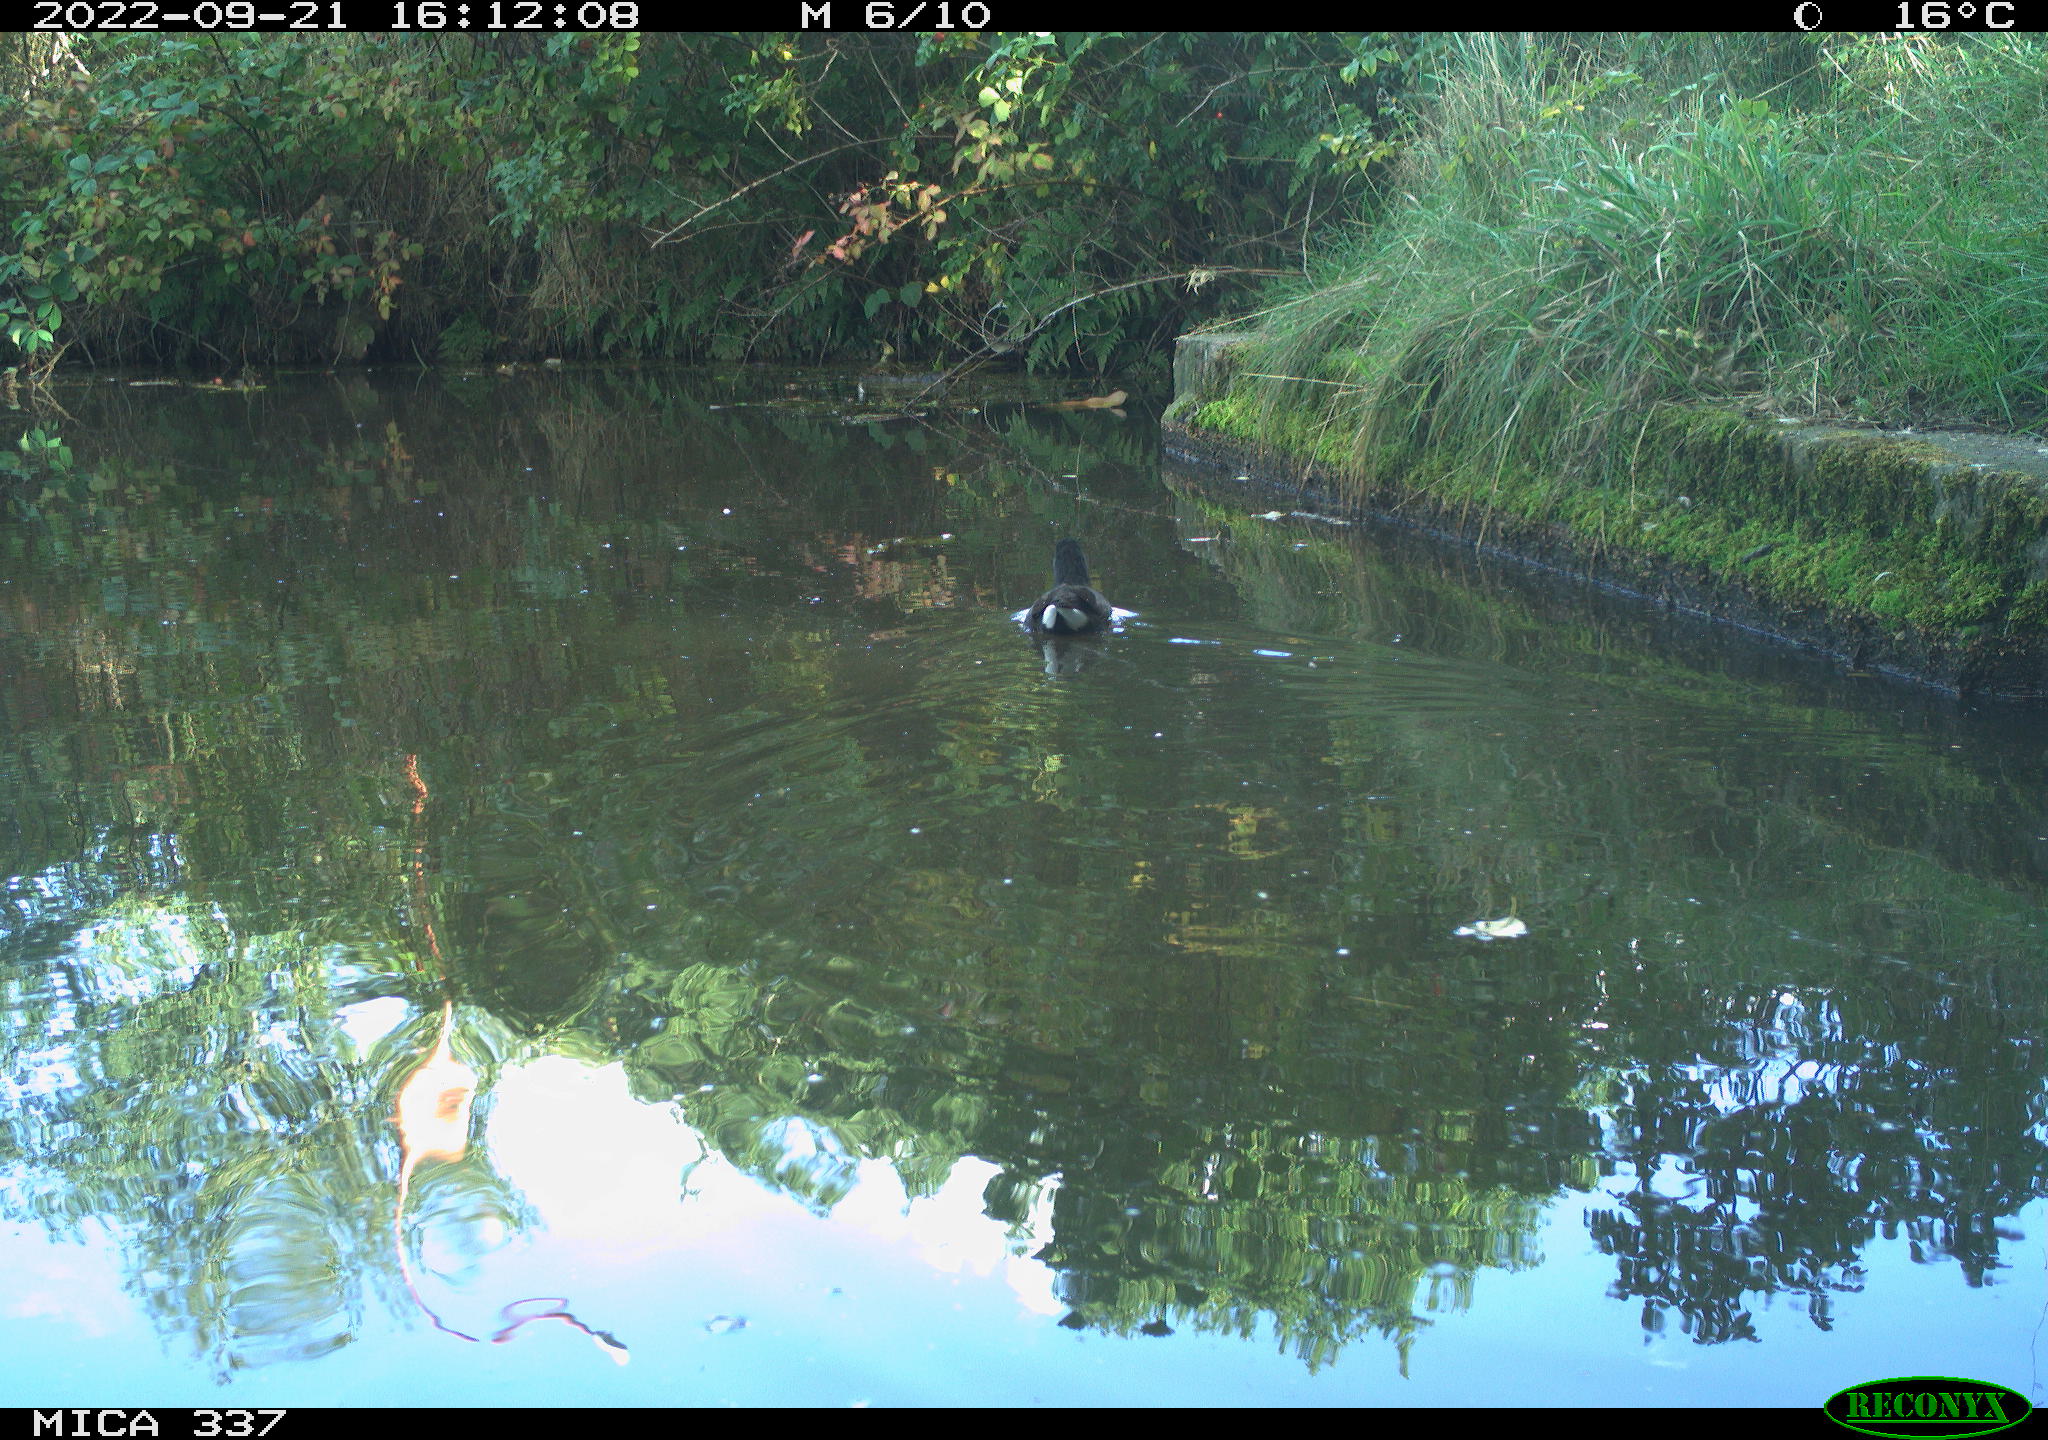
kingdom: Animalia
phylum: Chordata
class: Aves
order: Gruiformes
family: Rallidae
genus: Gallinula
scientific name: Gallinula chloropus
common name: Common moorhen
